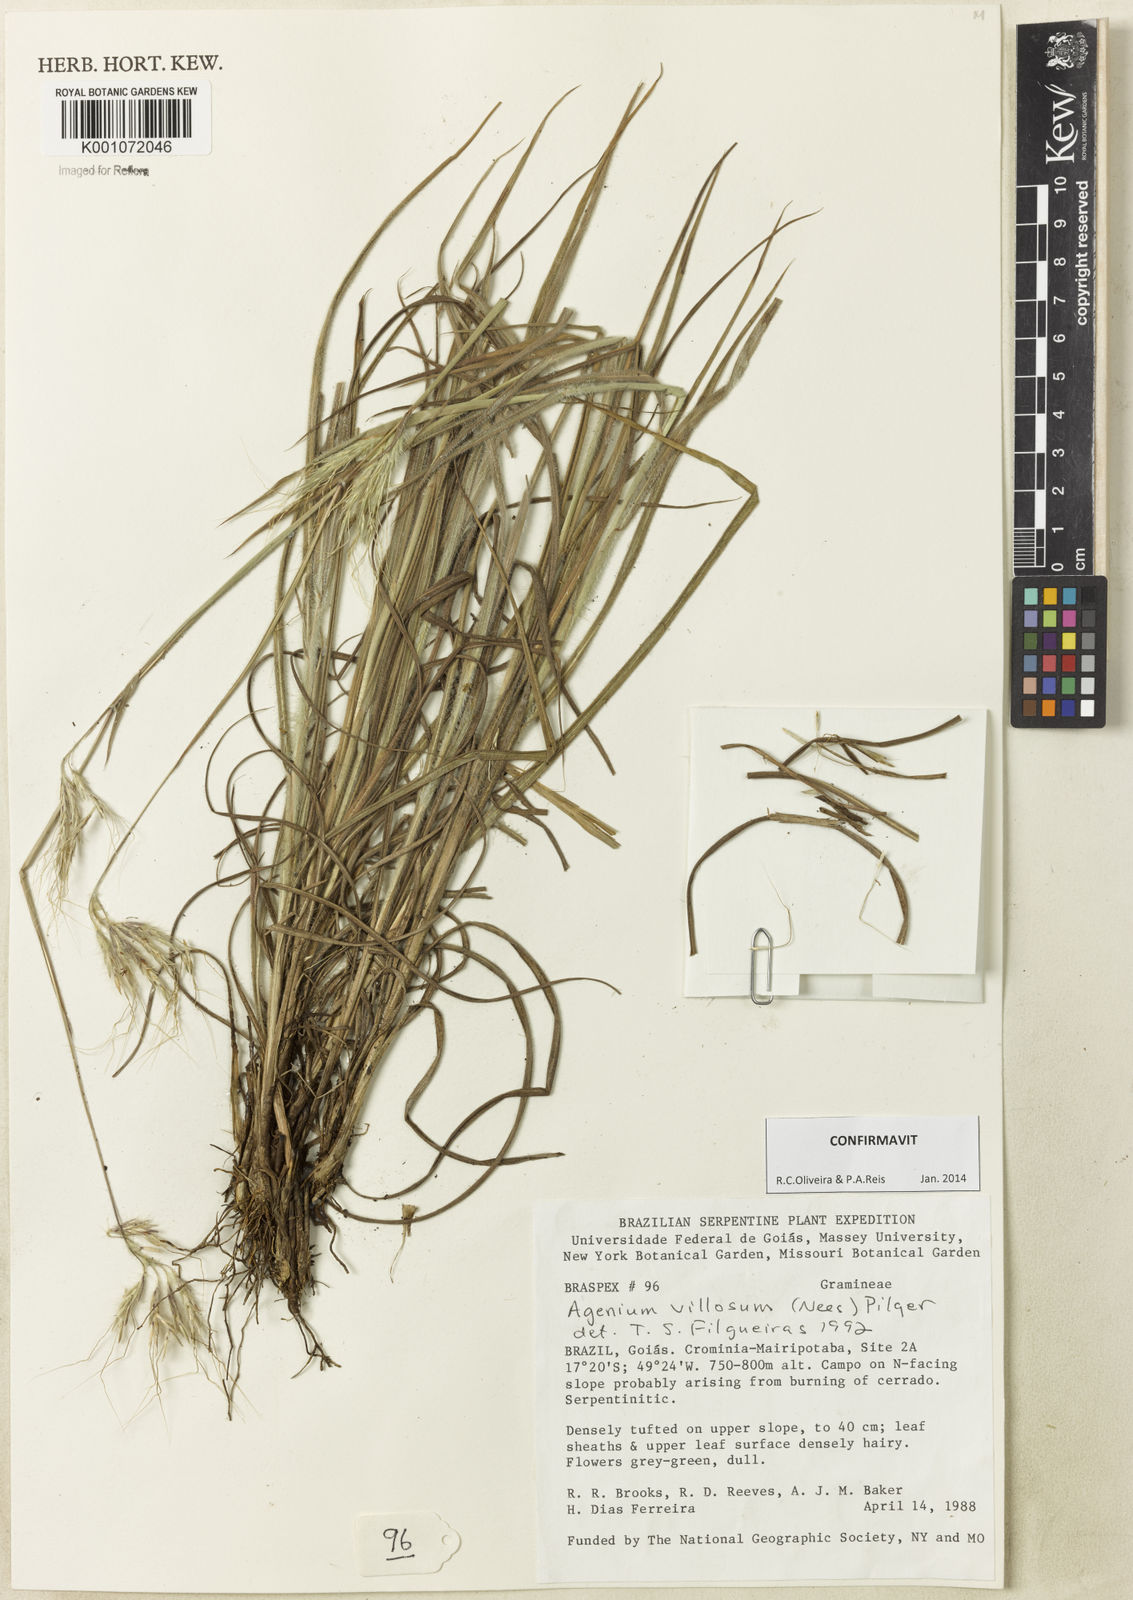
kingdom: Plantae
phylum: Tracheophyta
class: Liliopsida
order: Poales
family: Poaceae
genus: Agenium
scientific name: Agenium villosum
